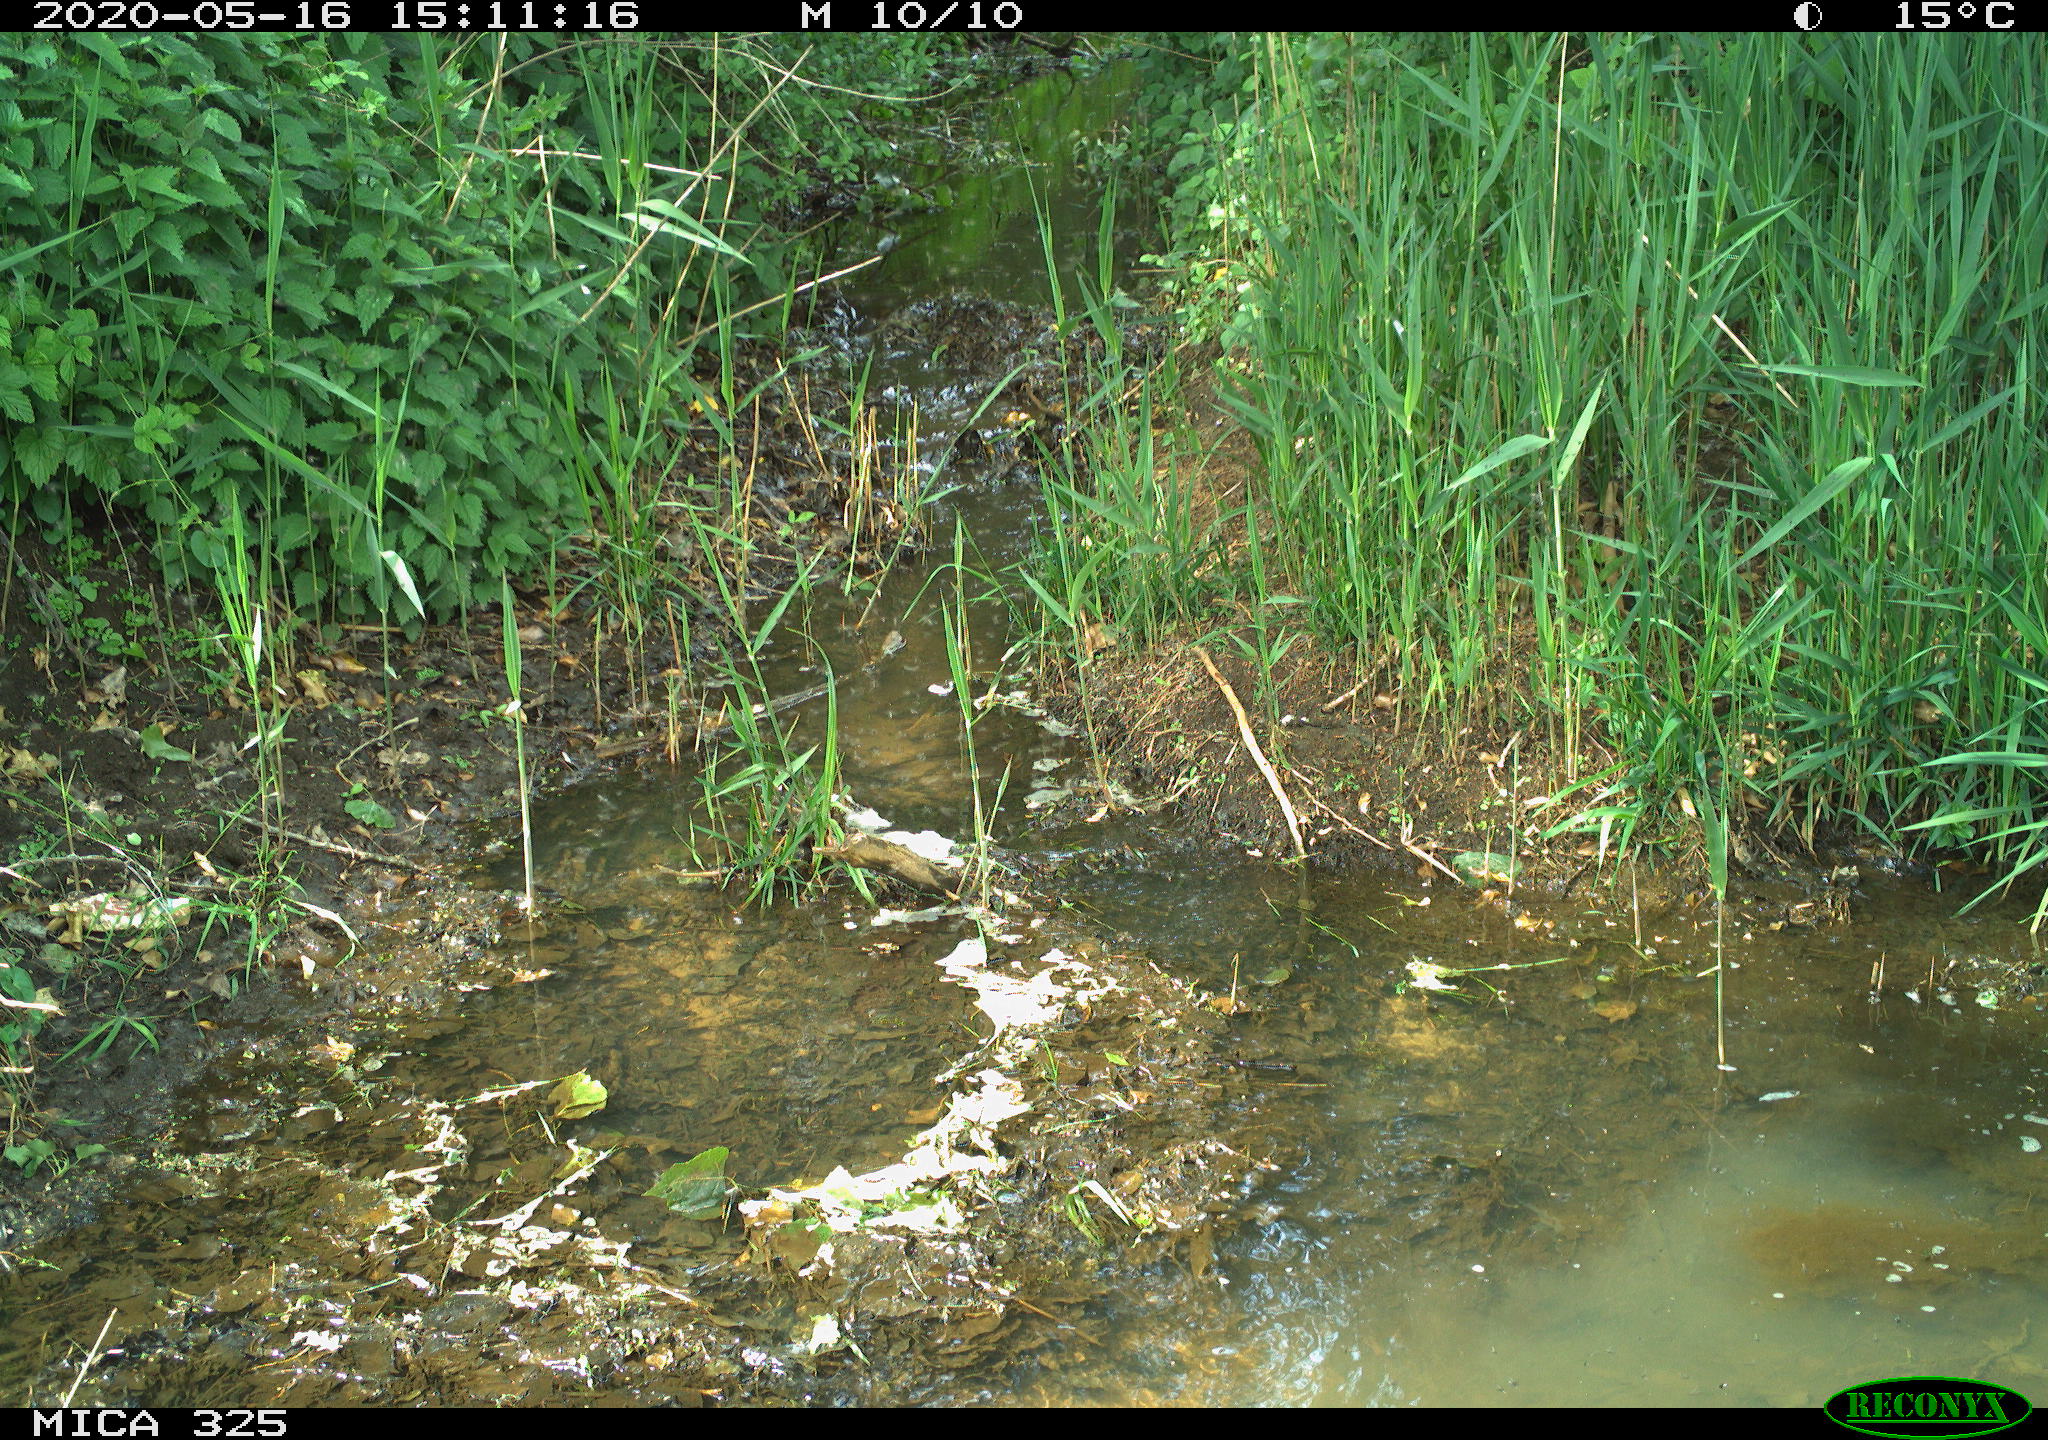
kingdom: Animalia
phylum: Chordata
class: Mammalia
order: Rodentia
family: Myocastoridae
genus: Myocastor
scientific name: Myocastor coypus
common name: Coypu
